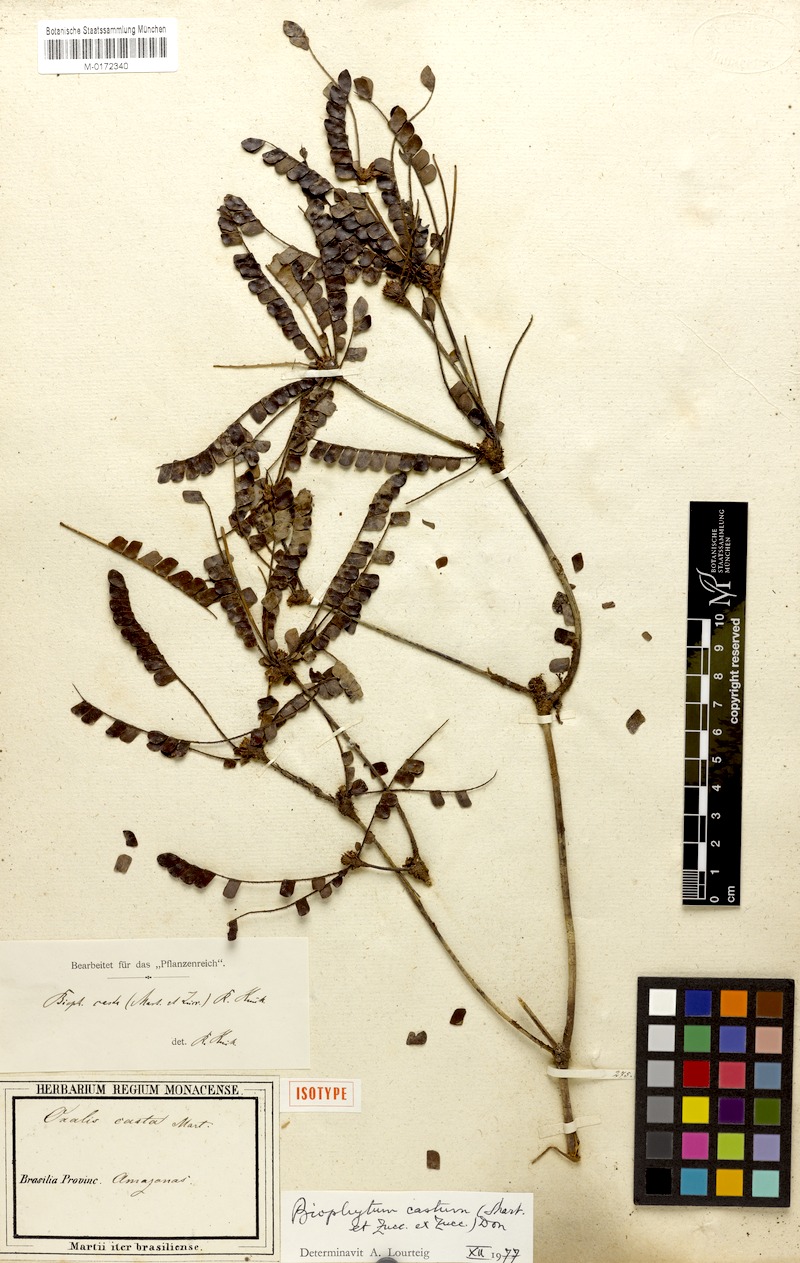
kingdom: Plantae
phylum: Tracheophyta
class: Magnoliopsida
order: Oxalidales
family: Oxalidaceae
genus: Biophytum
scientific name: Biophytum castum
